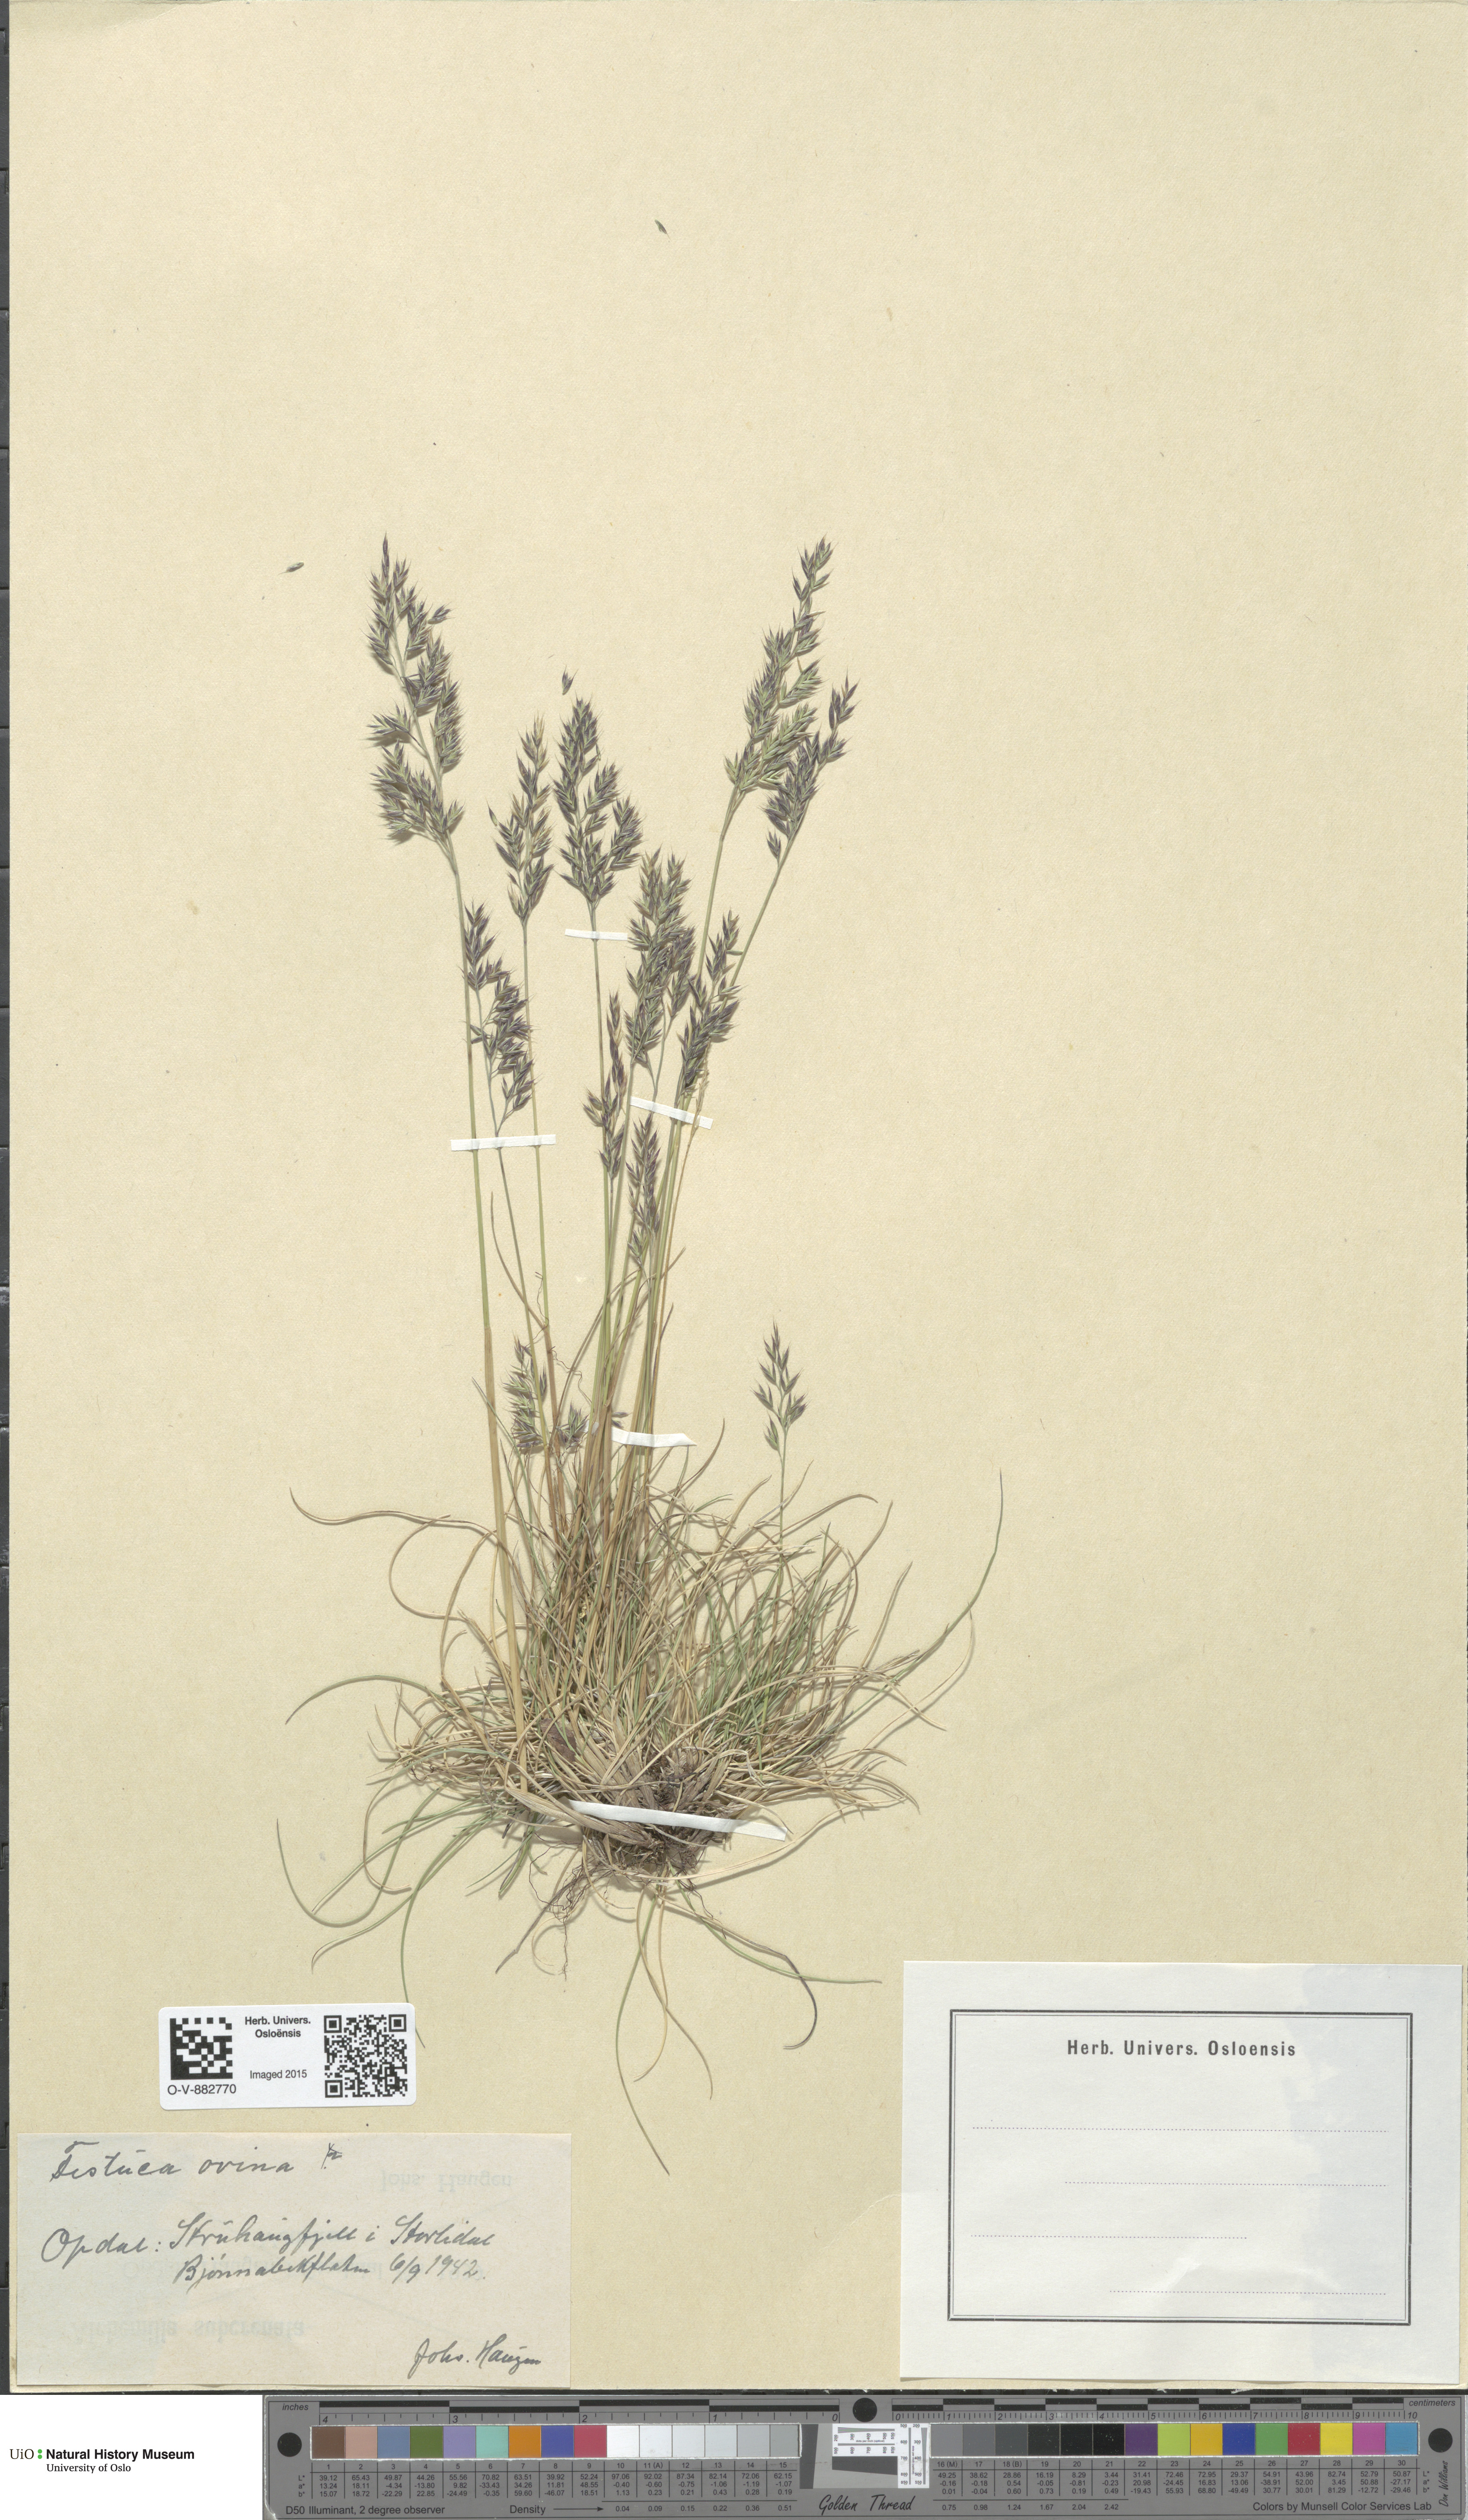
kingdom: Plantae
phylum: Tracheophyta
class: Liliopsida
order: Poales
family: Poaceae
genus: Festuca
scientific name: Festuca ovina
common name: Sheep fescue
